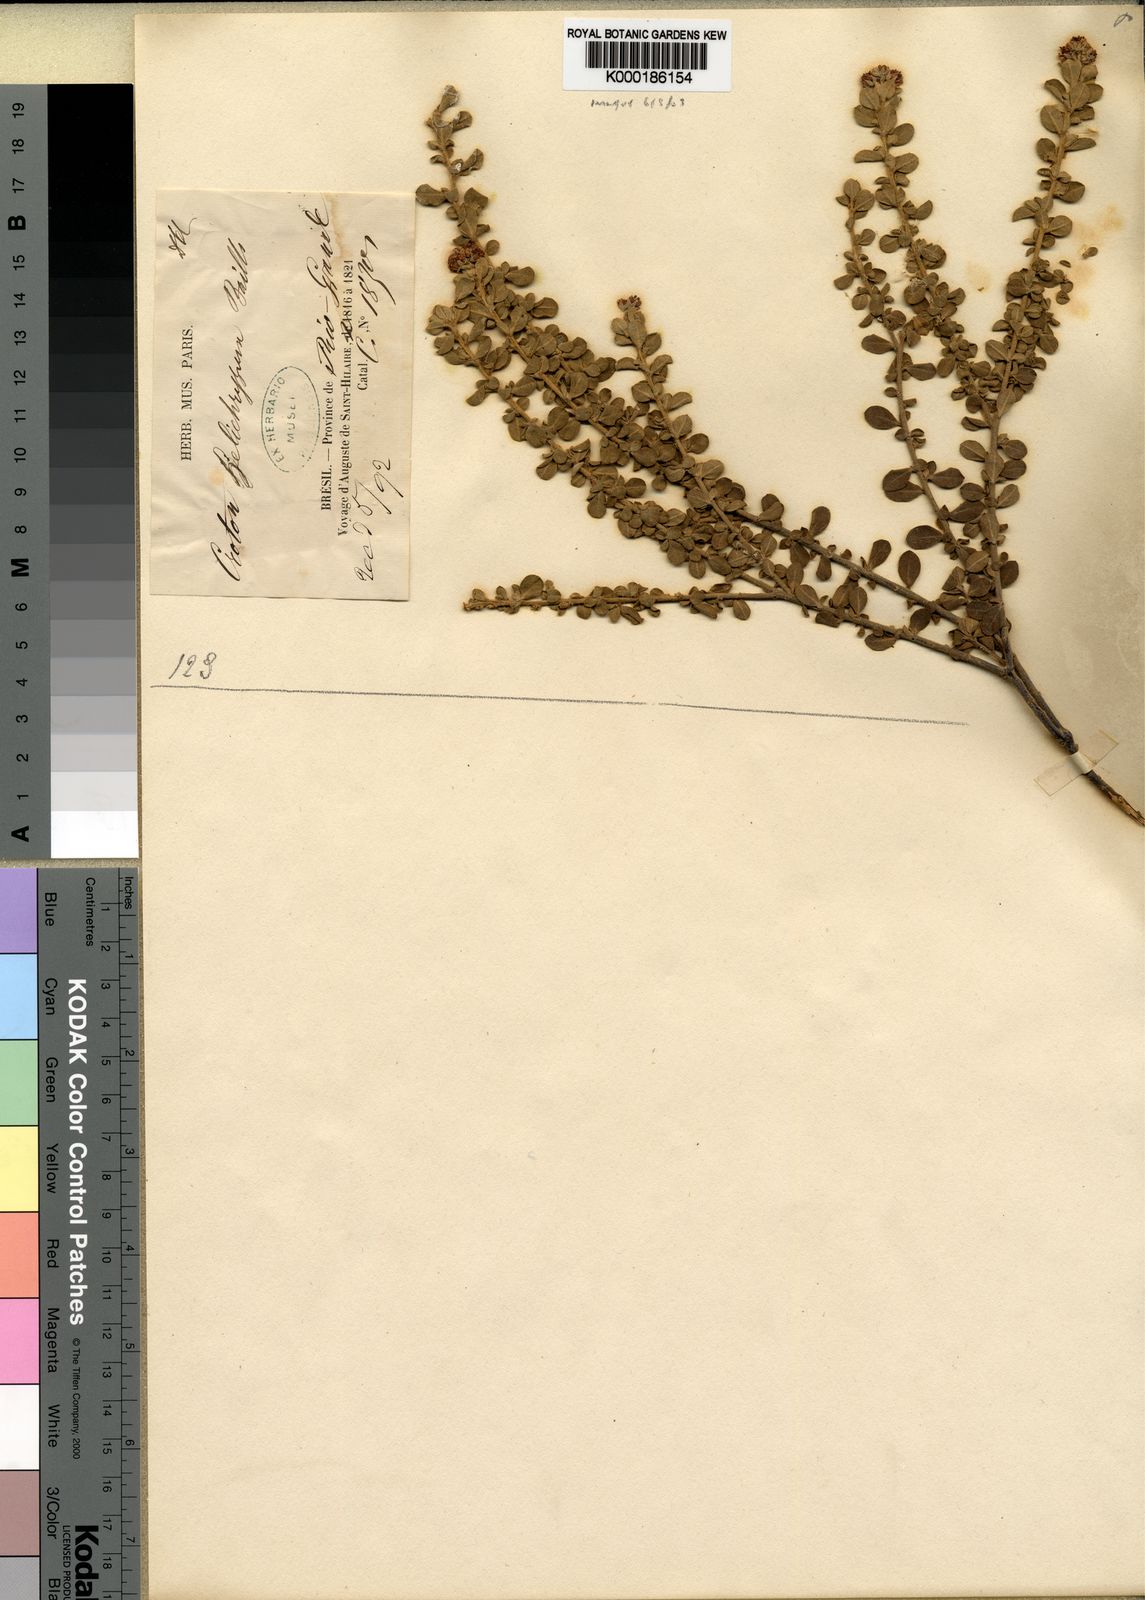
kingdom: Plantae
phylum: Tracheophyta
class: Magnoliopsida
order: Malpighiales
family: Euphorbiaceae
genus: Croton
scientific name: Croton helichrysum
